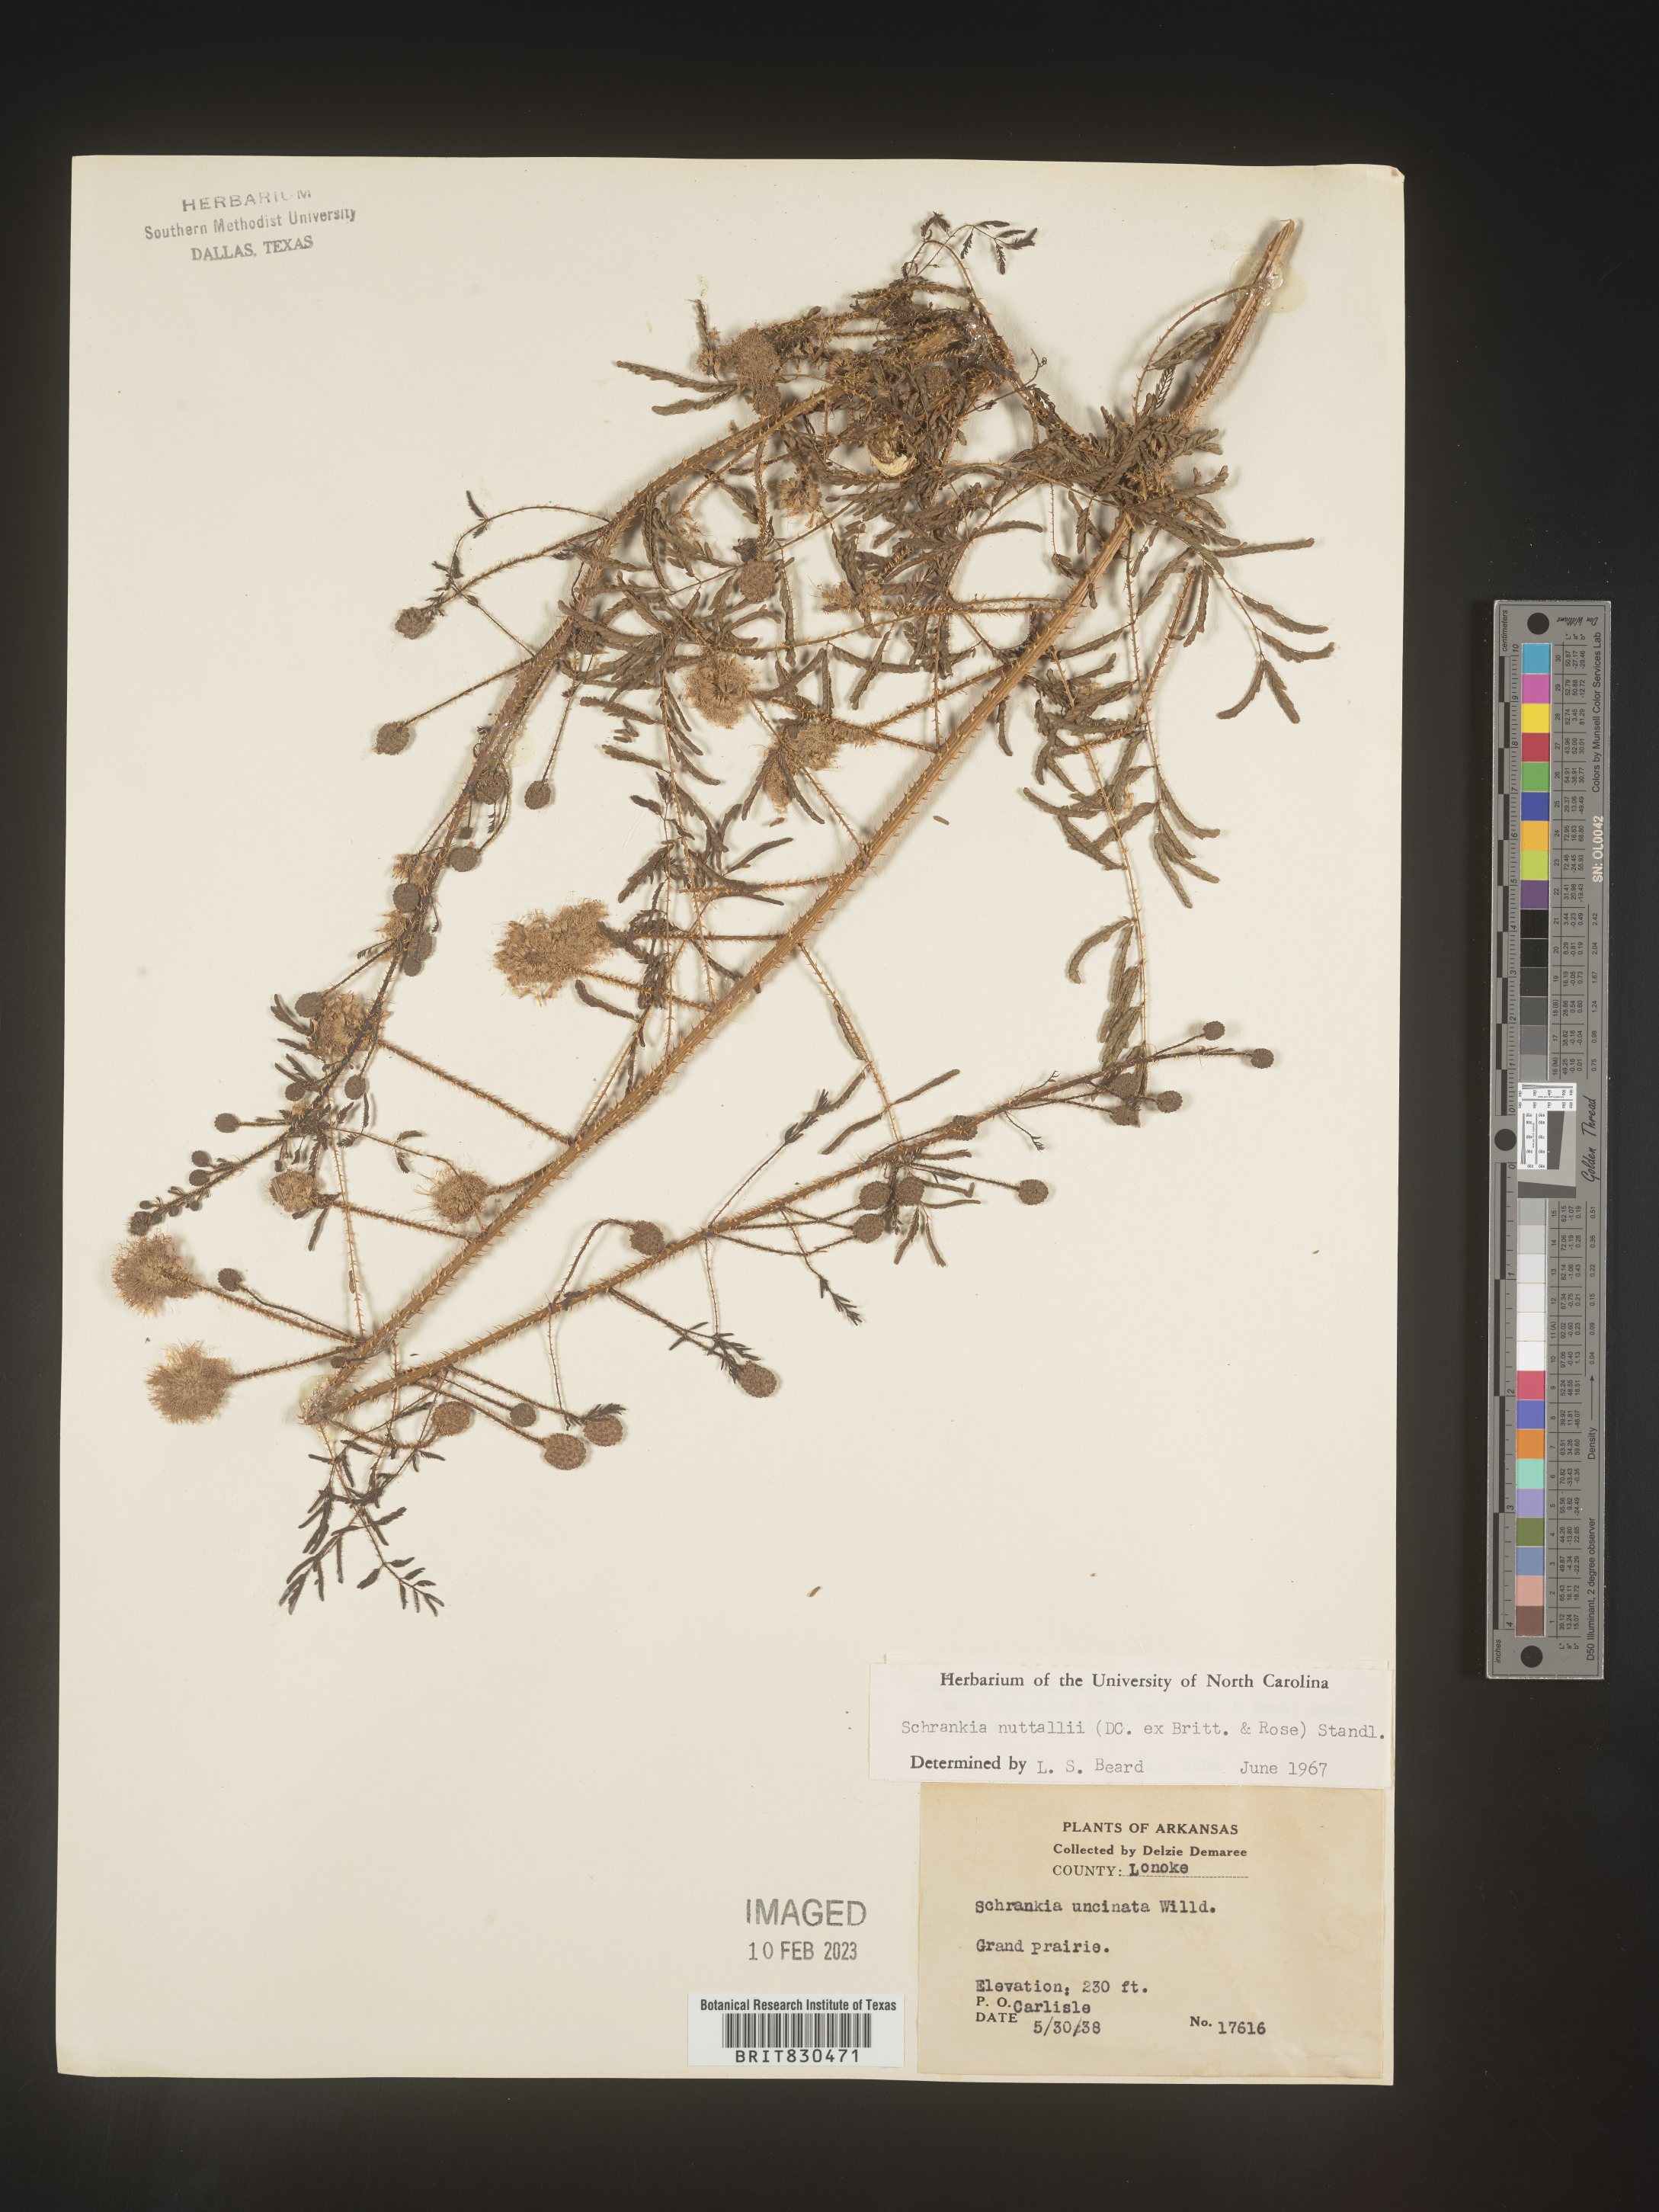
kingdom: Plantae
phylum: Tracheophyta
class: Magnoliopsida
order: Fabales
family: Fabaceae
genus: Mimosa
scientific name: Mimosa quadrivalvis
